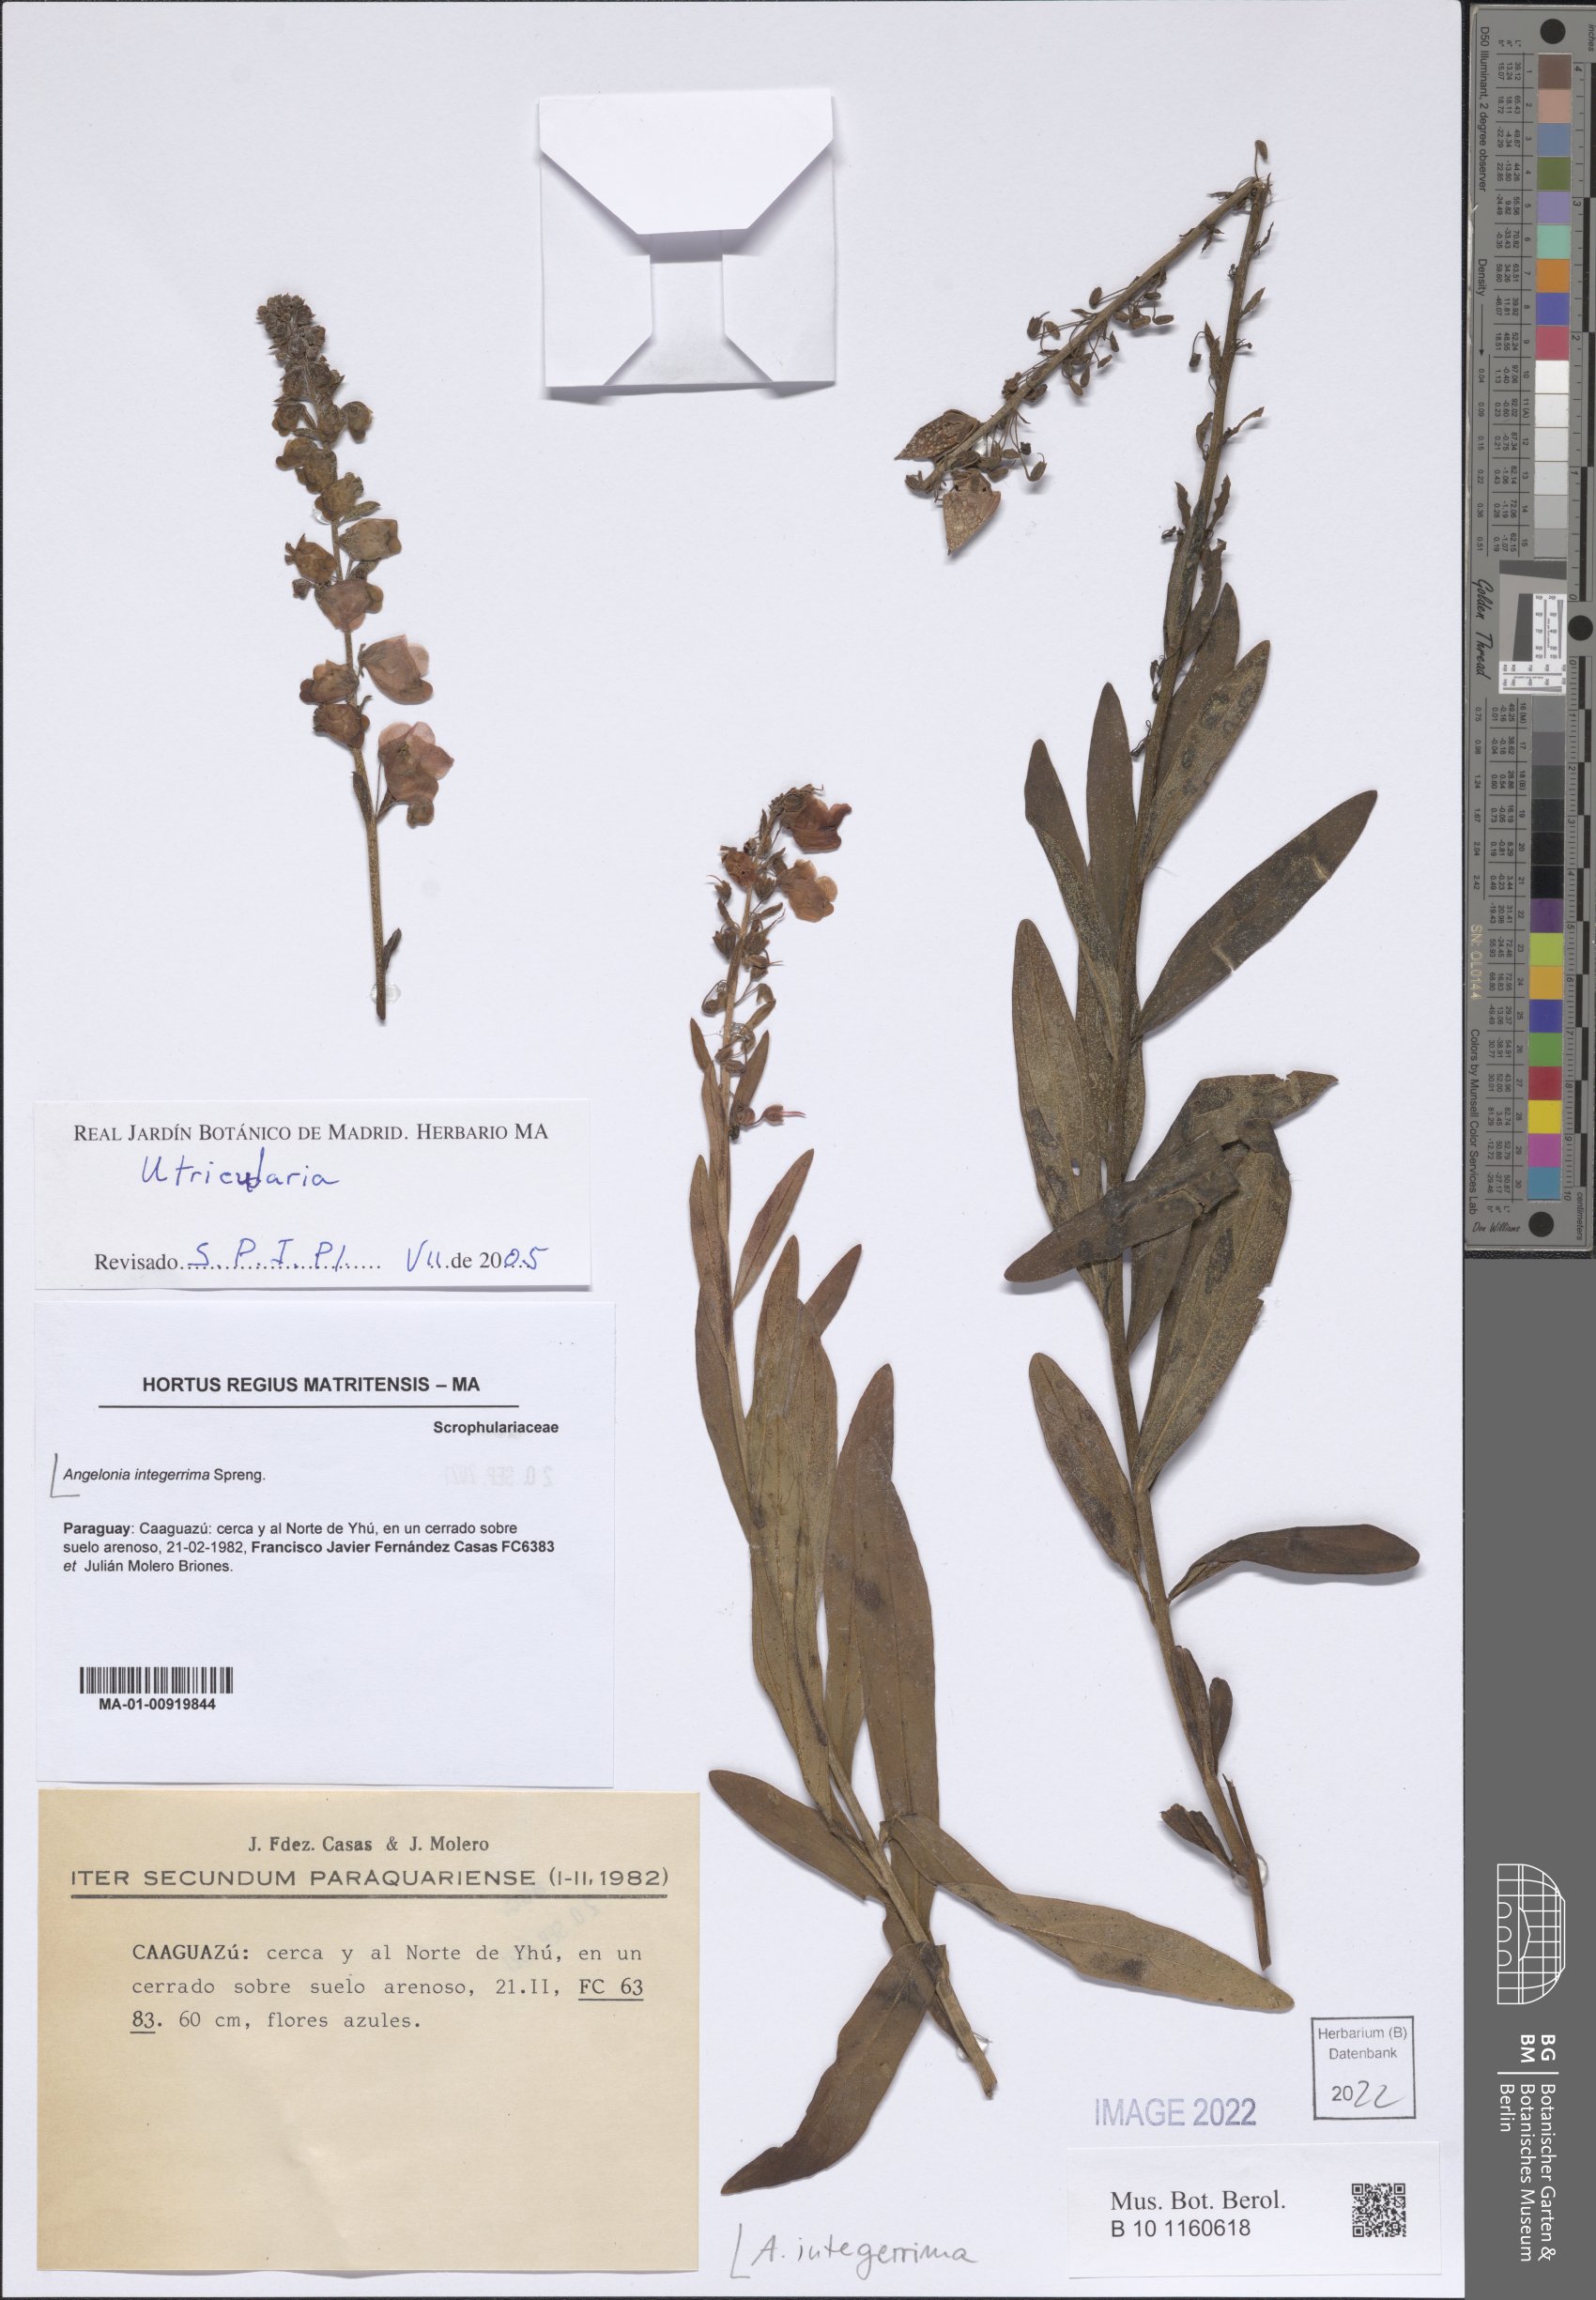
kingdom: Plantae
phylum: Tracheophyta
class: Magnoliopsida
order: Lamiales
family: Plantaginaceae
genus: Angelonia
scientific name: Angelonia integerrima
